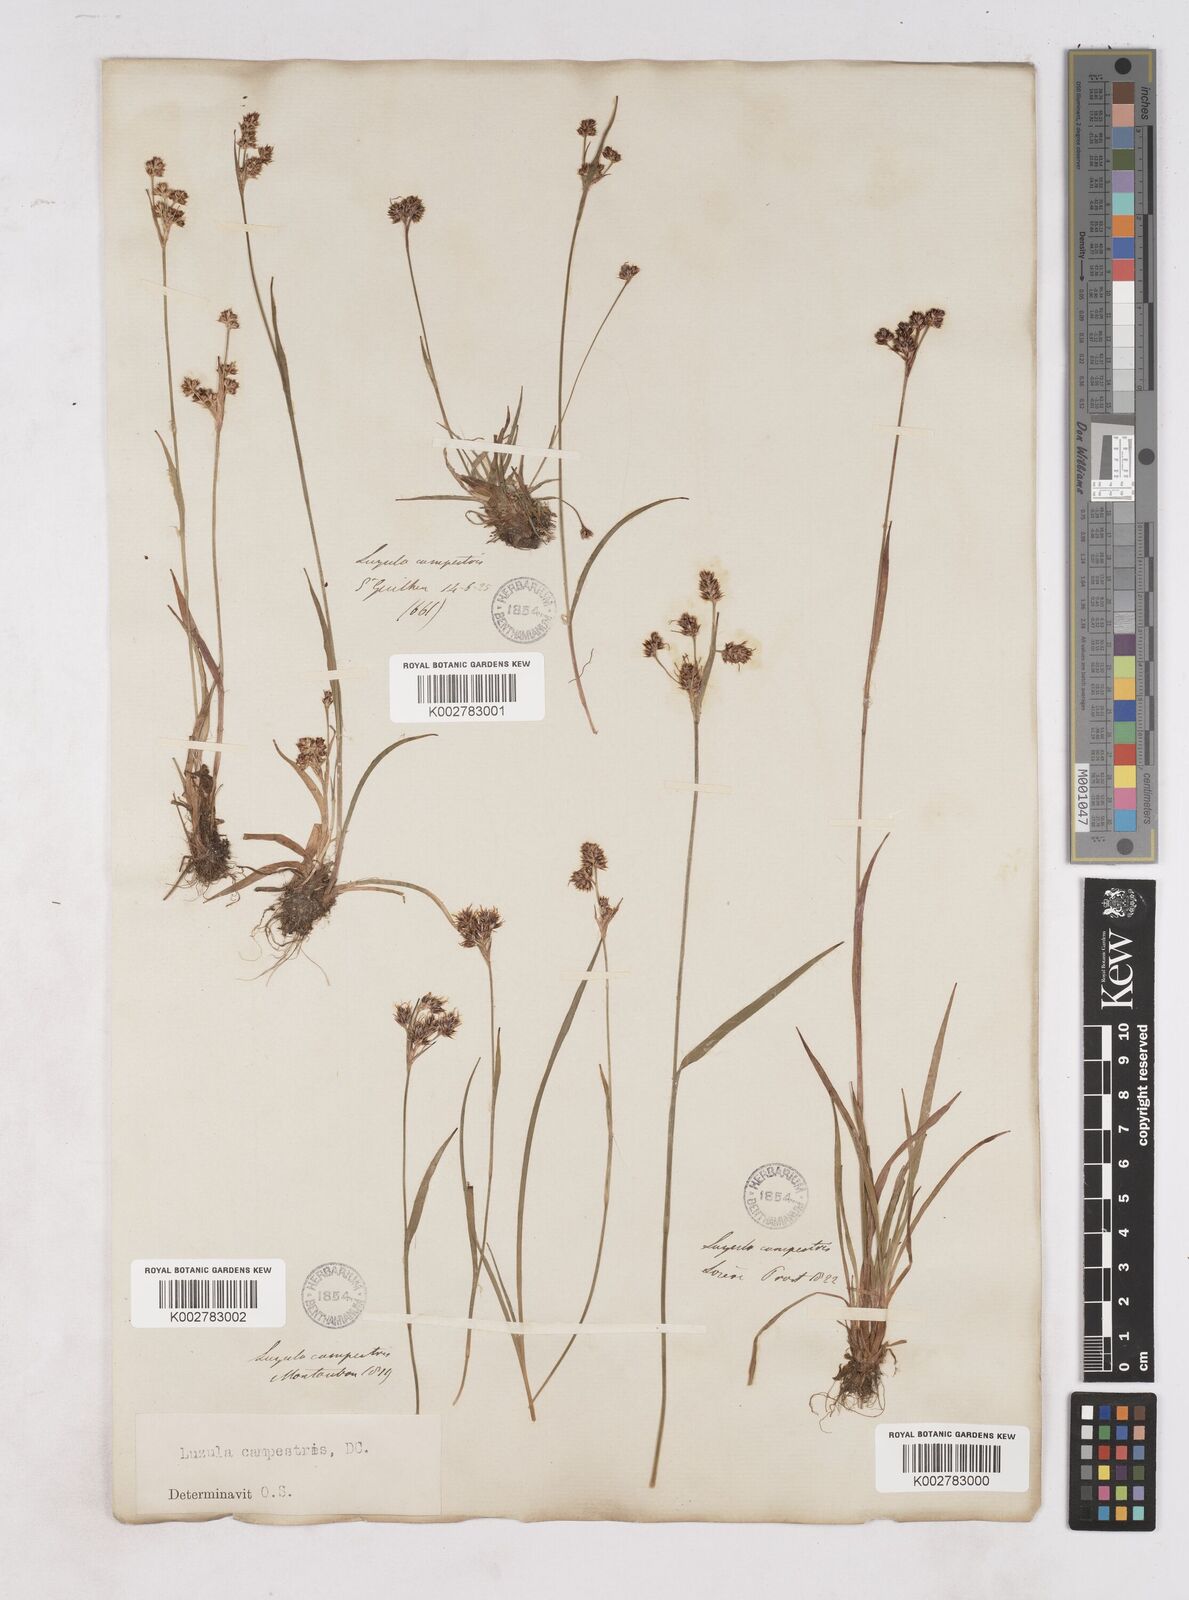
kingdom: Plantae
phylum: Tracheophyta
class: Liliopsida
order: Poales
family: Juncaceae
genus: Luzula
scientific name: Luzula campestris
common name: Field wood-rush
